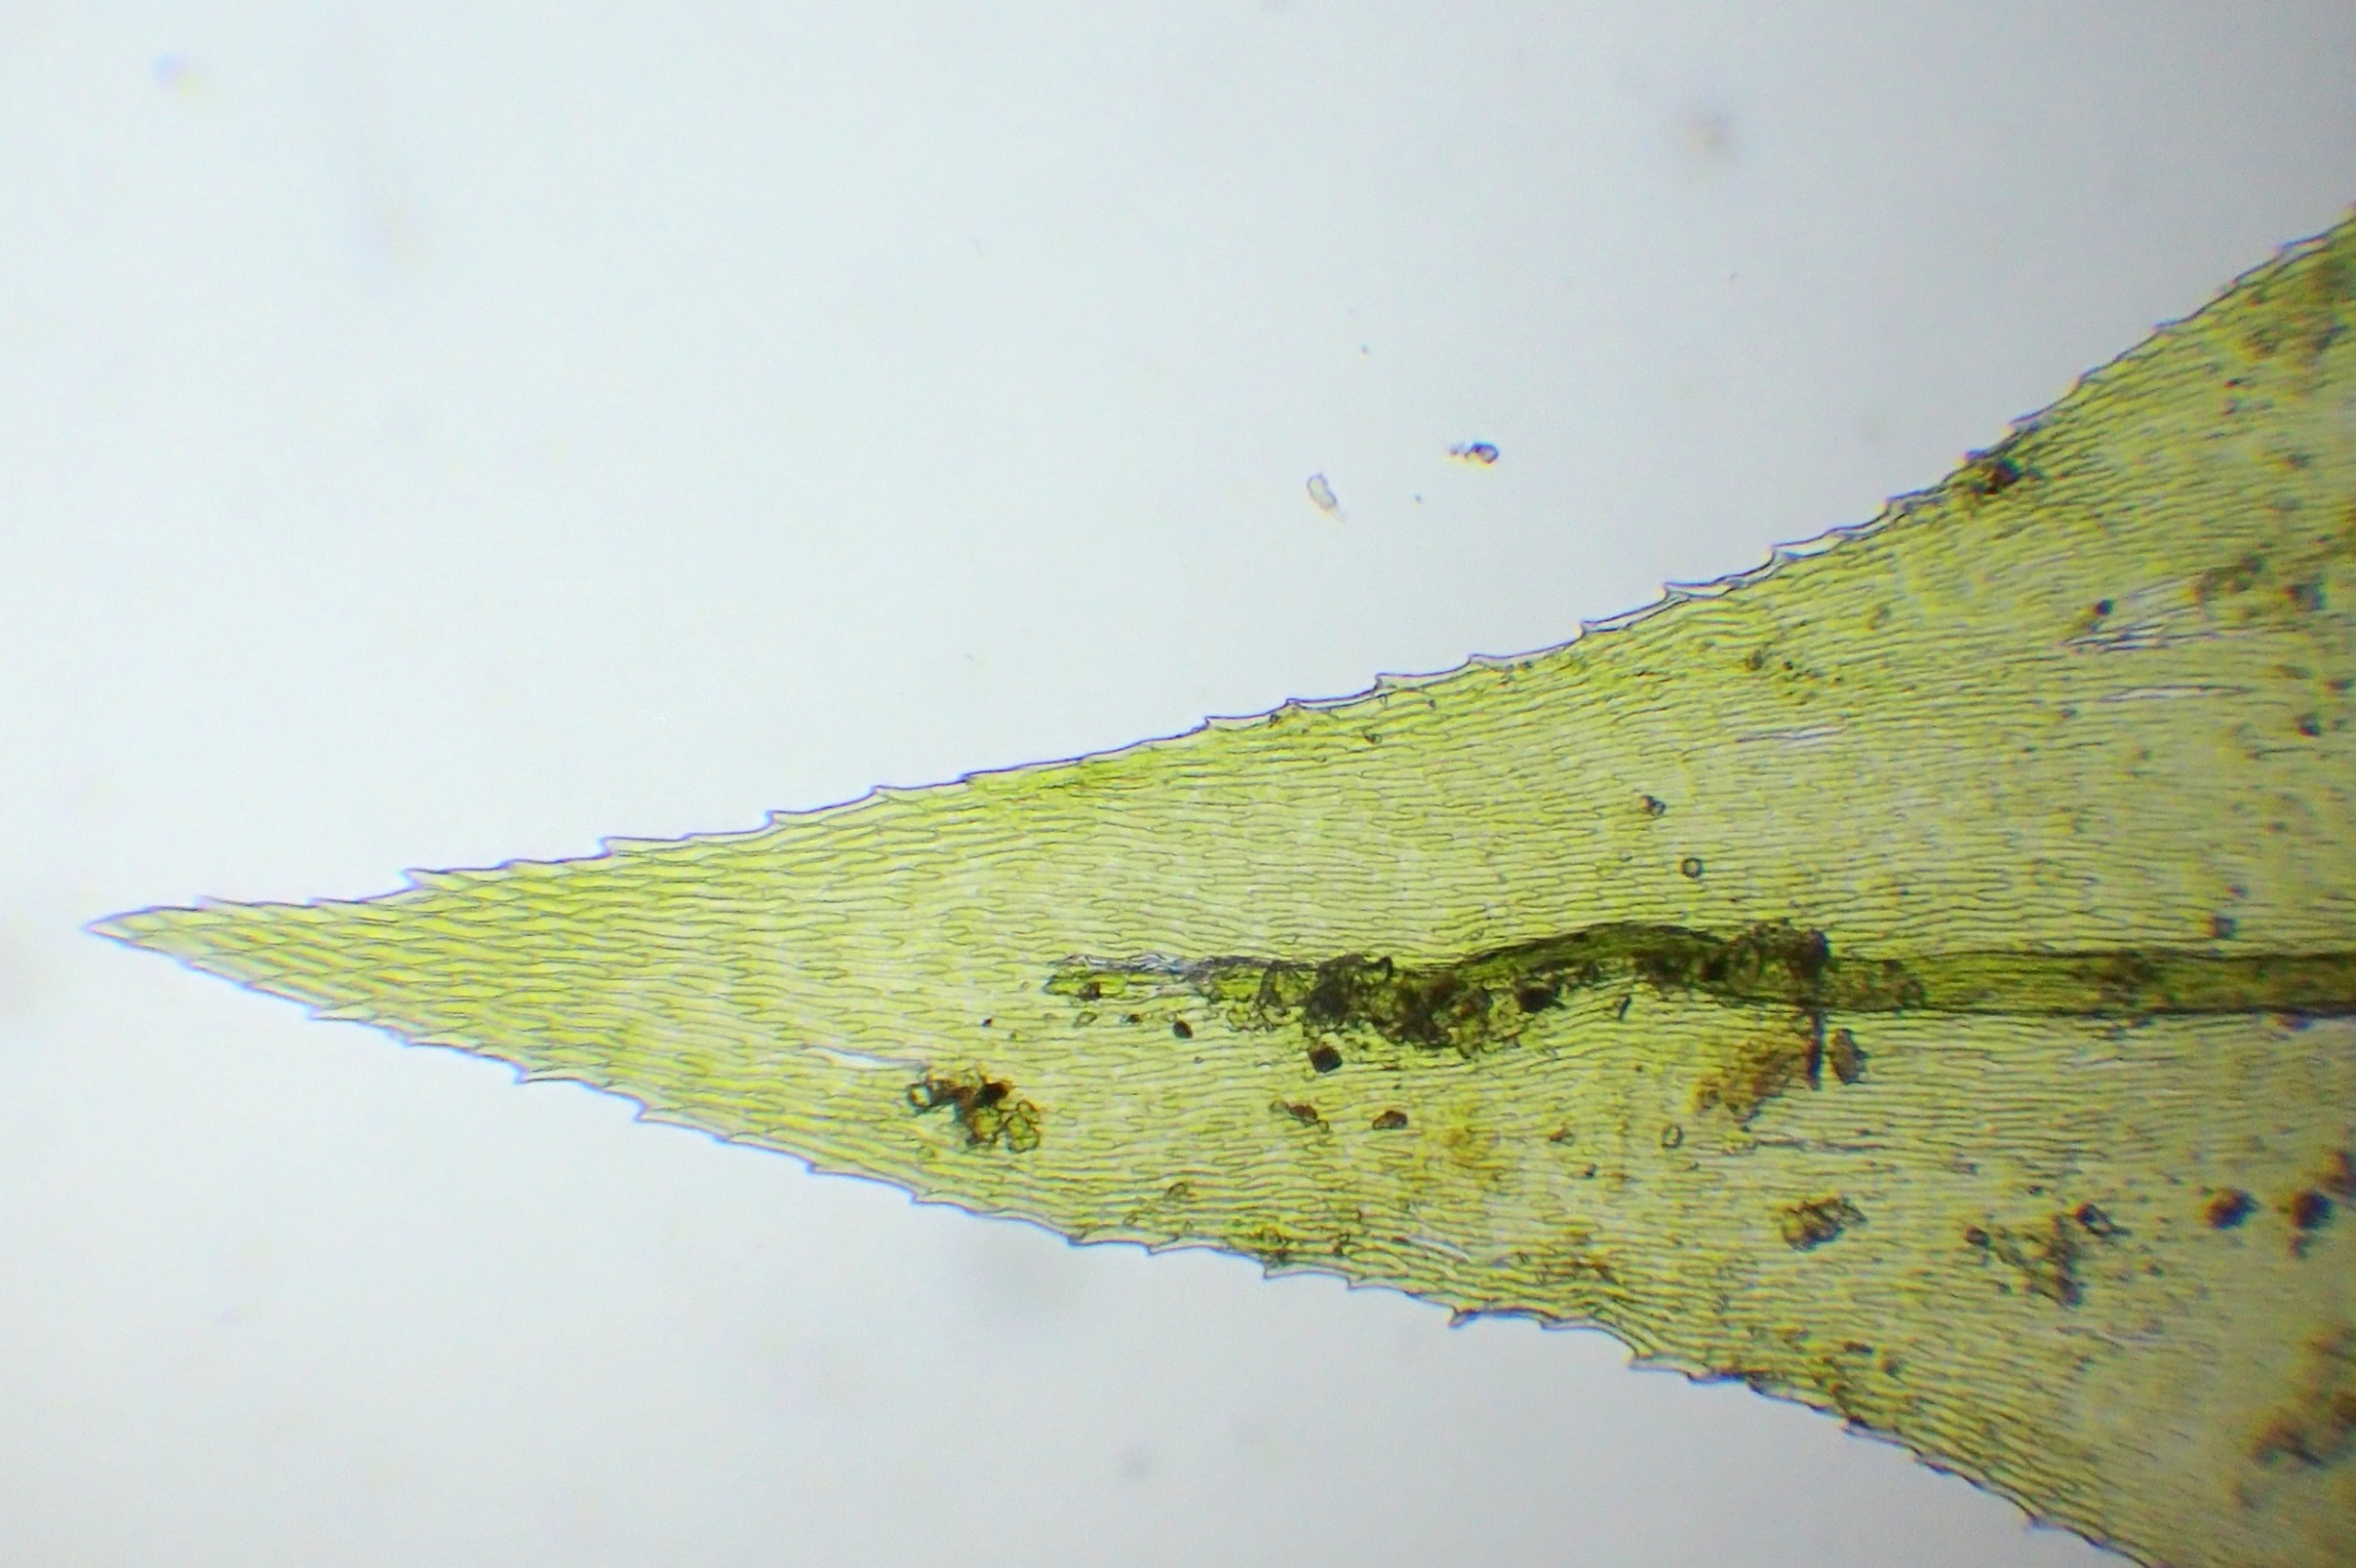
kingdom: Plantae
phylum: Bryophyta
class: Bryopsida
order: Hypnales
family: Brachytheciaceae
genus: Eurhynchium
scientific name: Eurhynchium striatum
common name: Stribet næbmos
